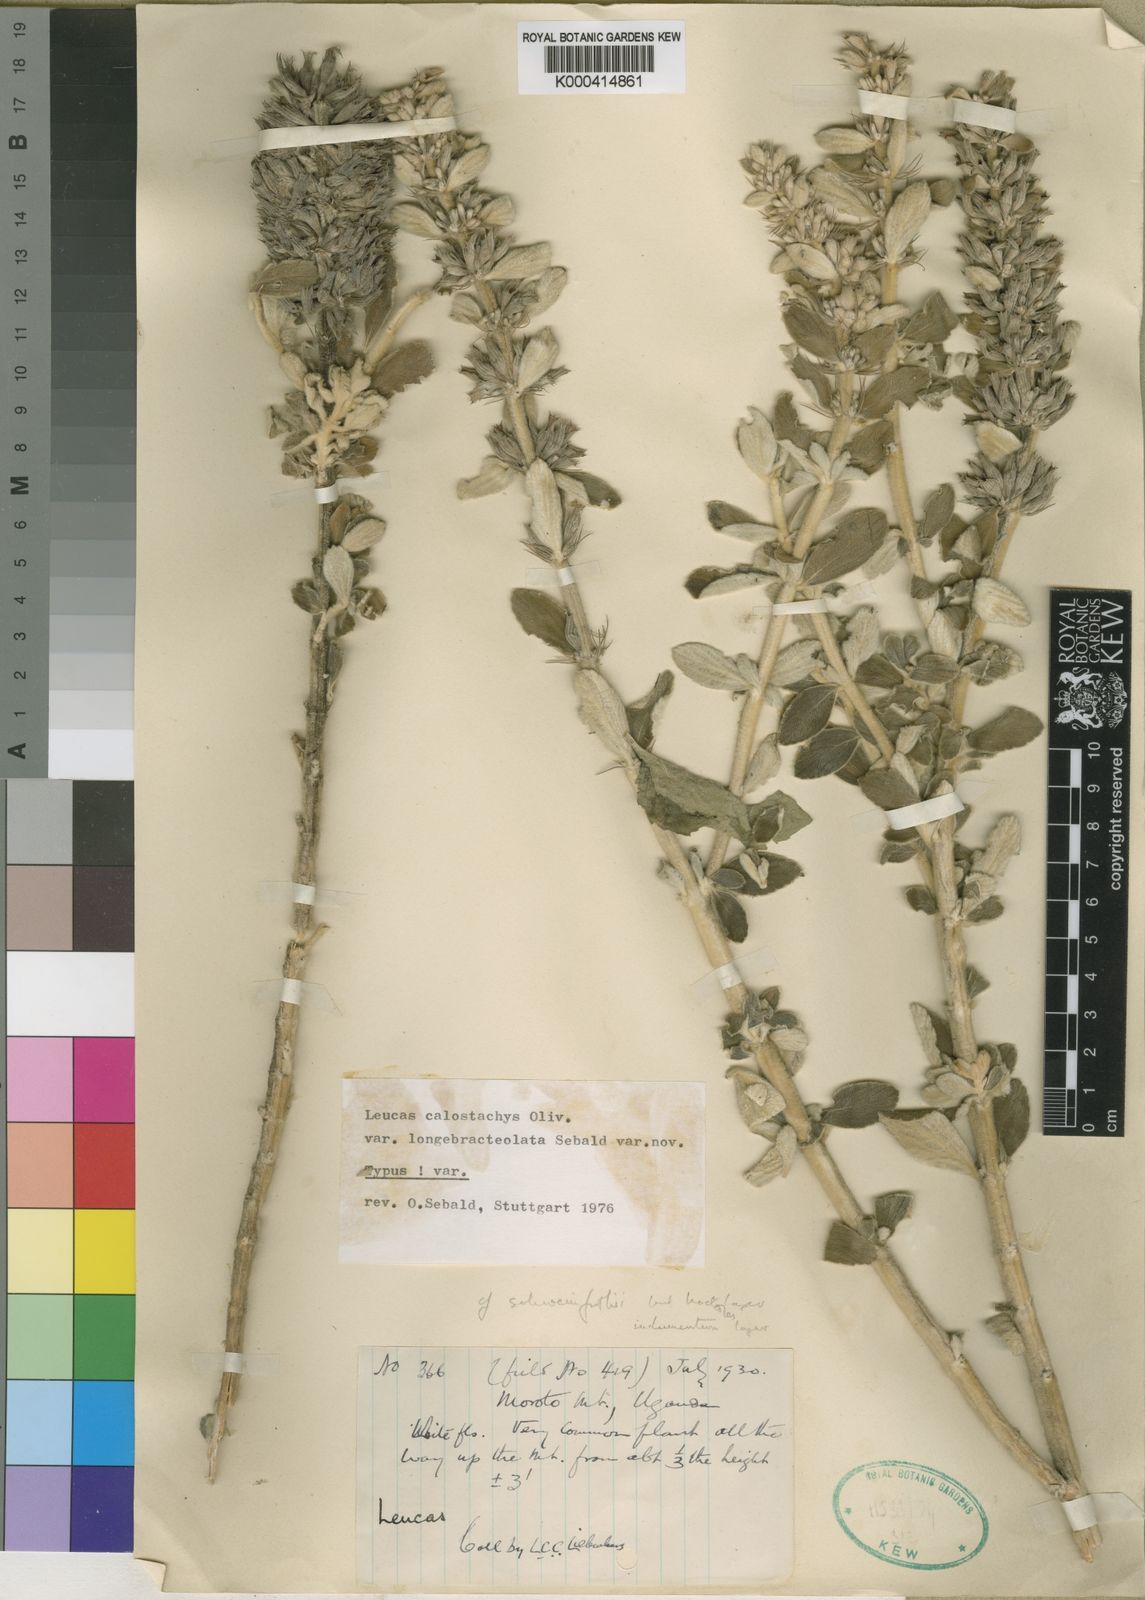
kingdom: Plantae
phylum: Tracheophyta
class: Magnoliopsida
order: Lamiales
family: Lamiaceae
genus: Leucas
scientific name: Leucas calostachys
